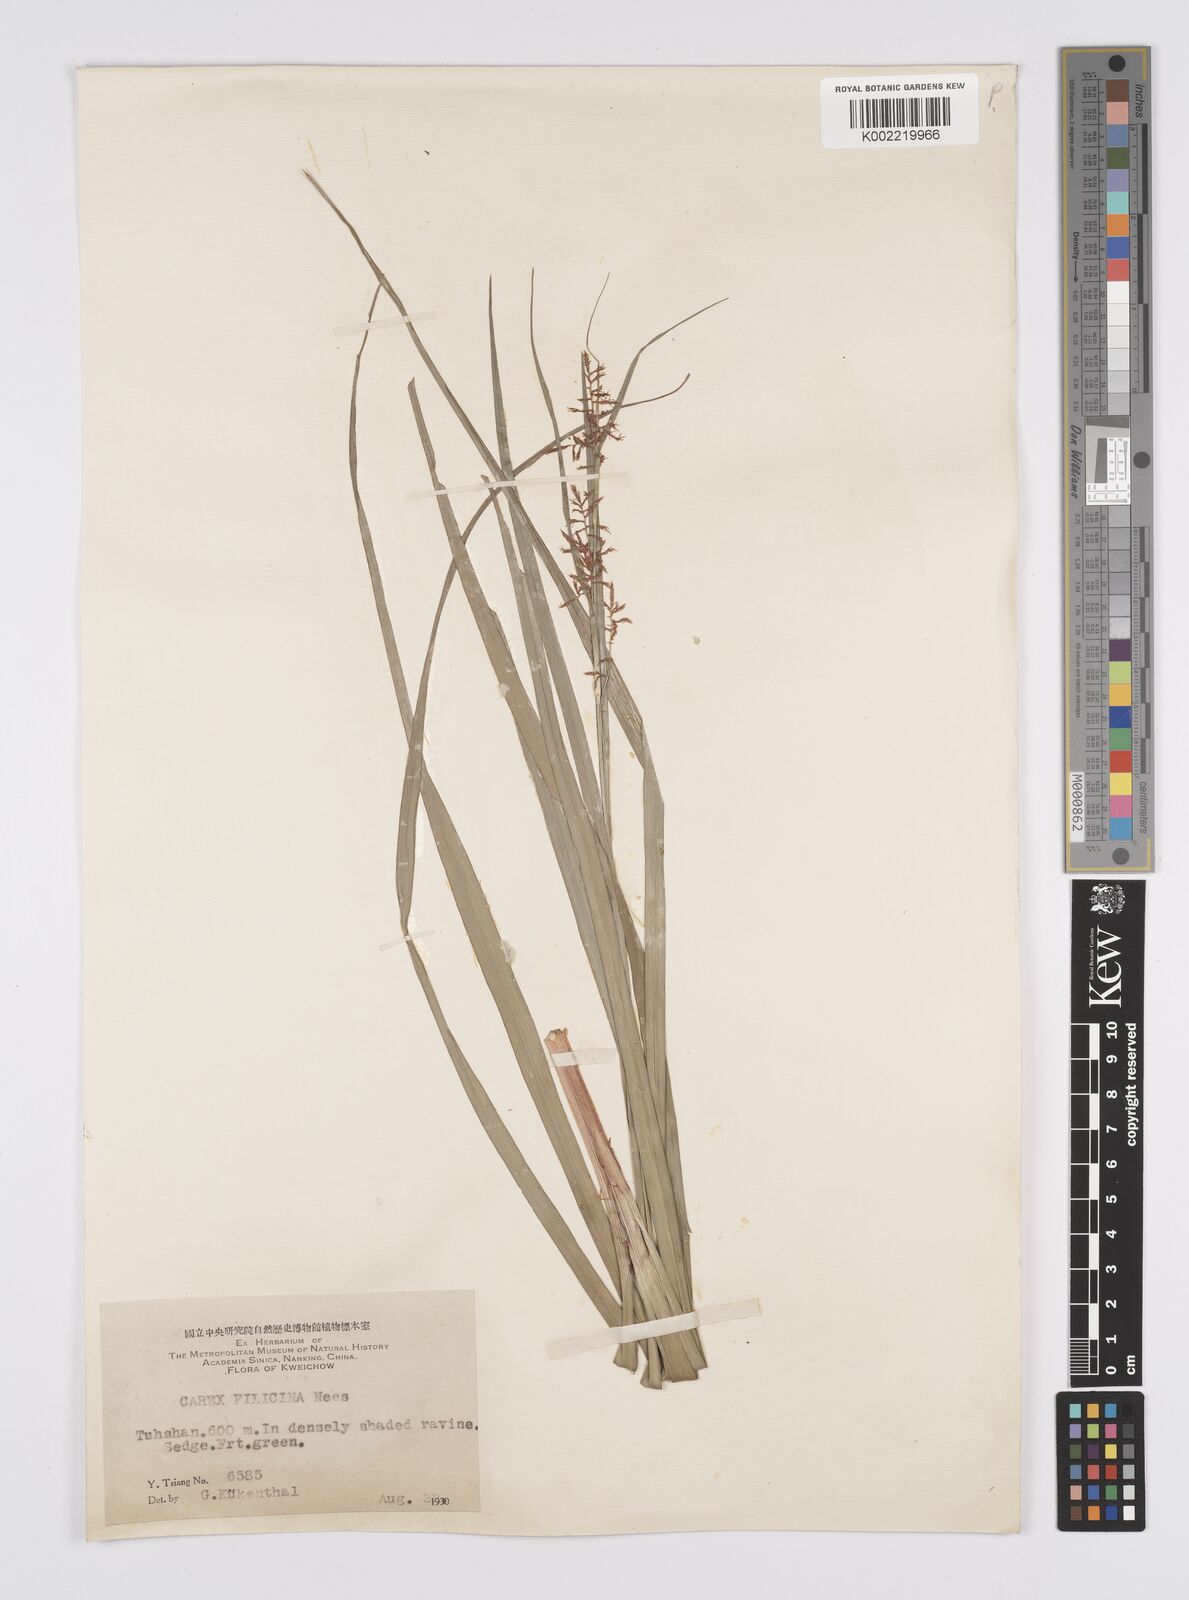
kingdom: Plantae
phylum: Tracheophyta
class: Liliopsida
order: Poales
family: Cyperaceae
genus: Carex
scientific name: Carex filicina
